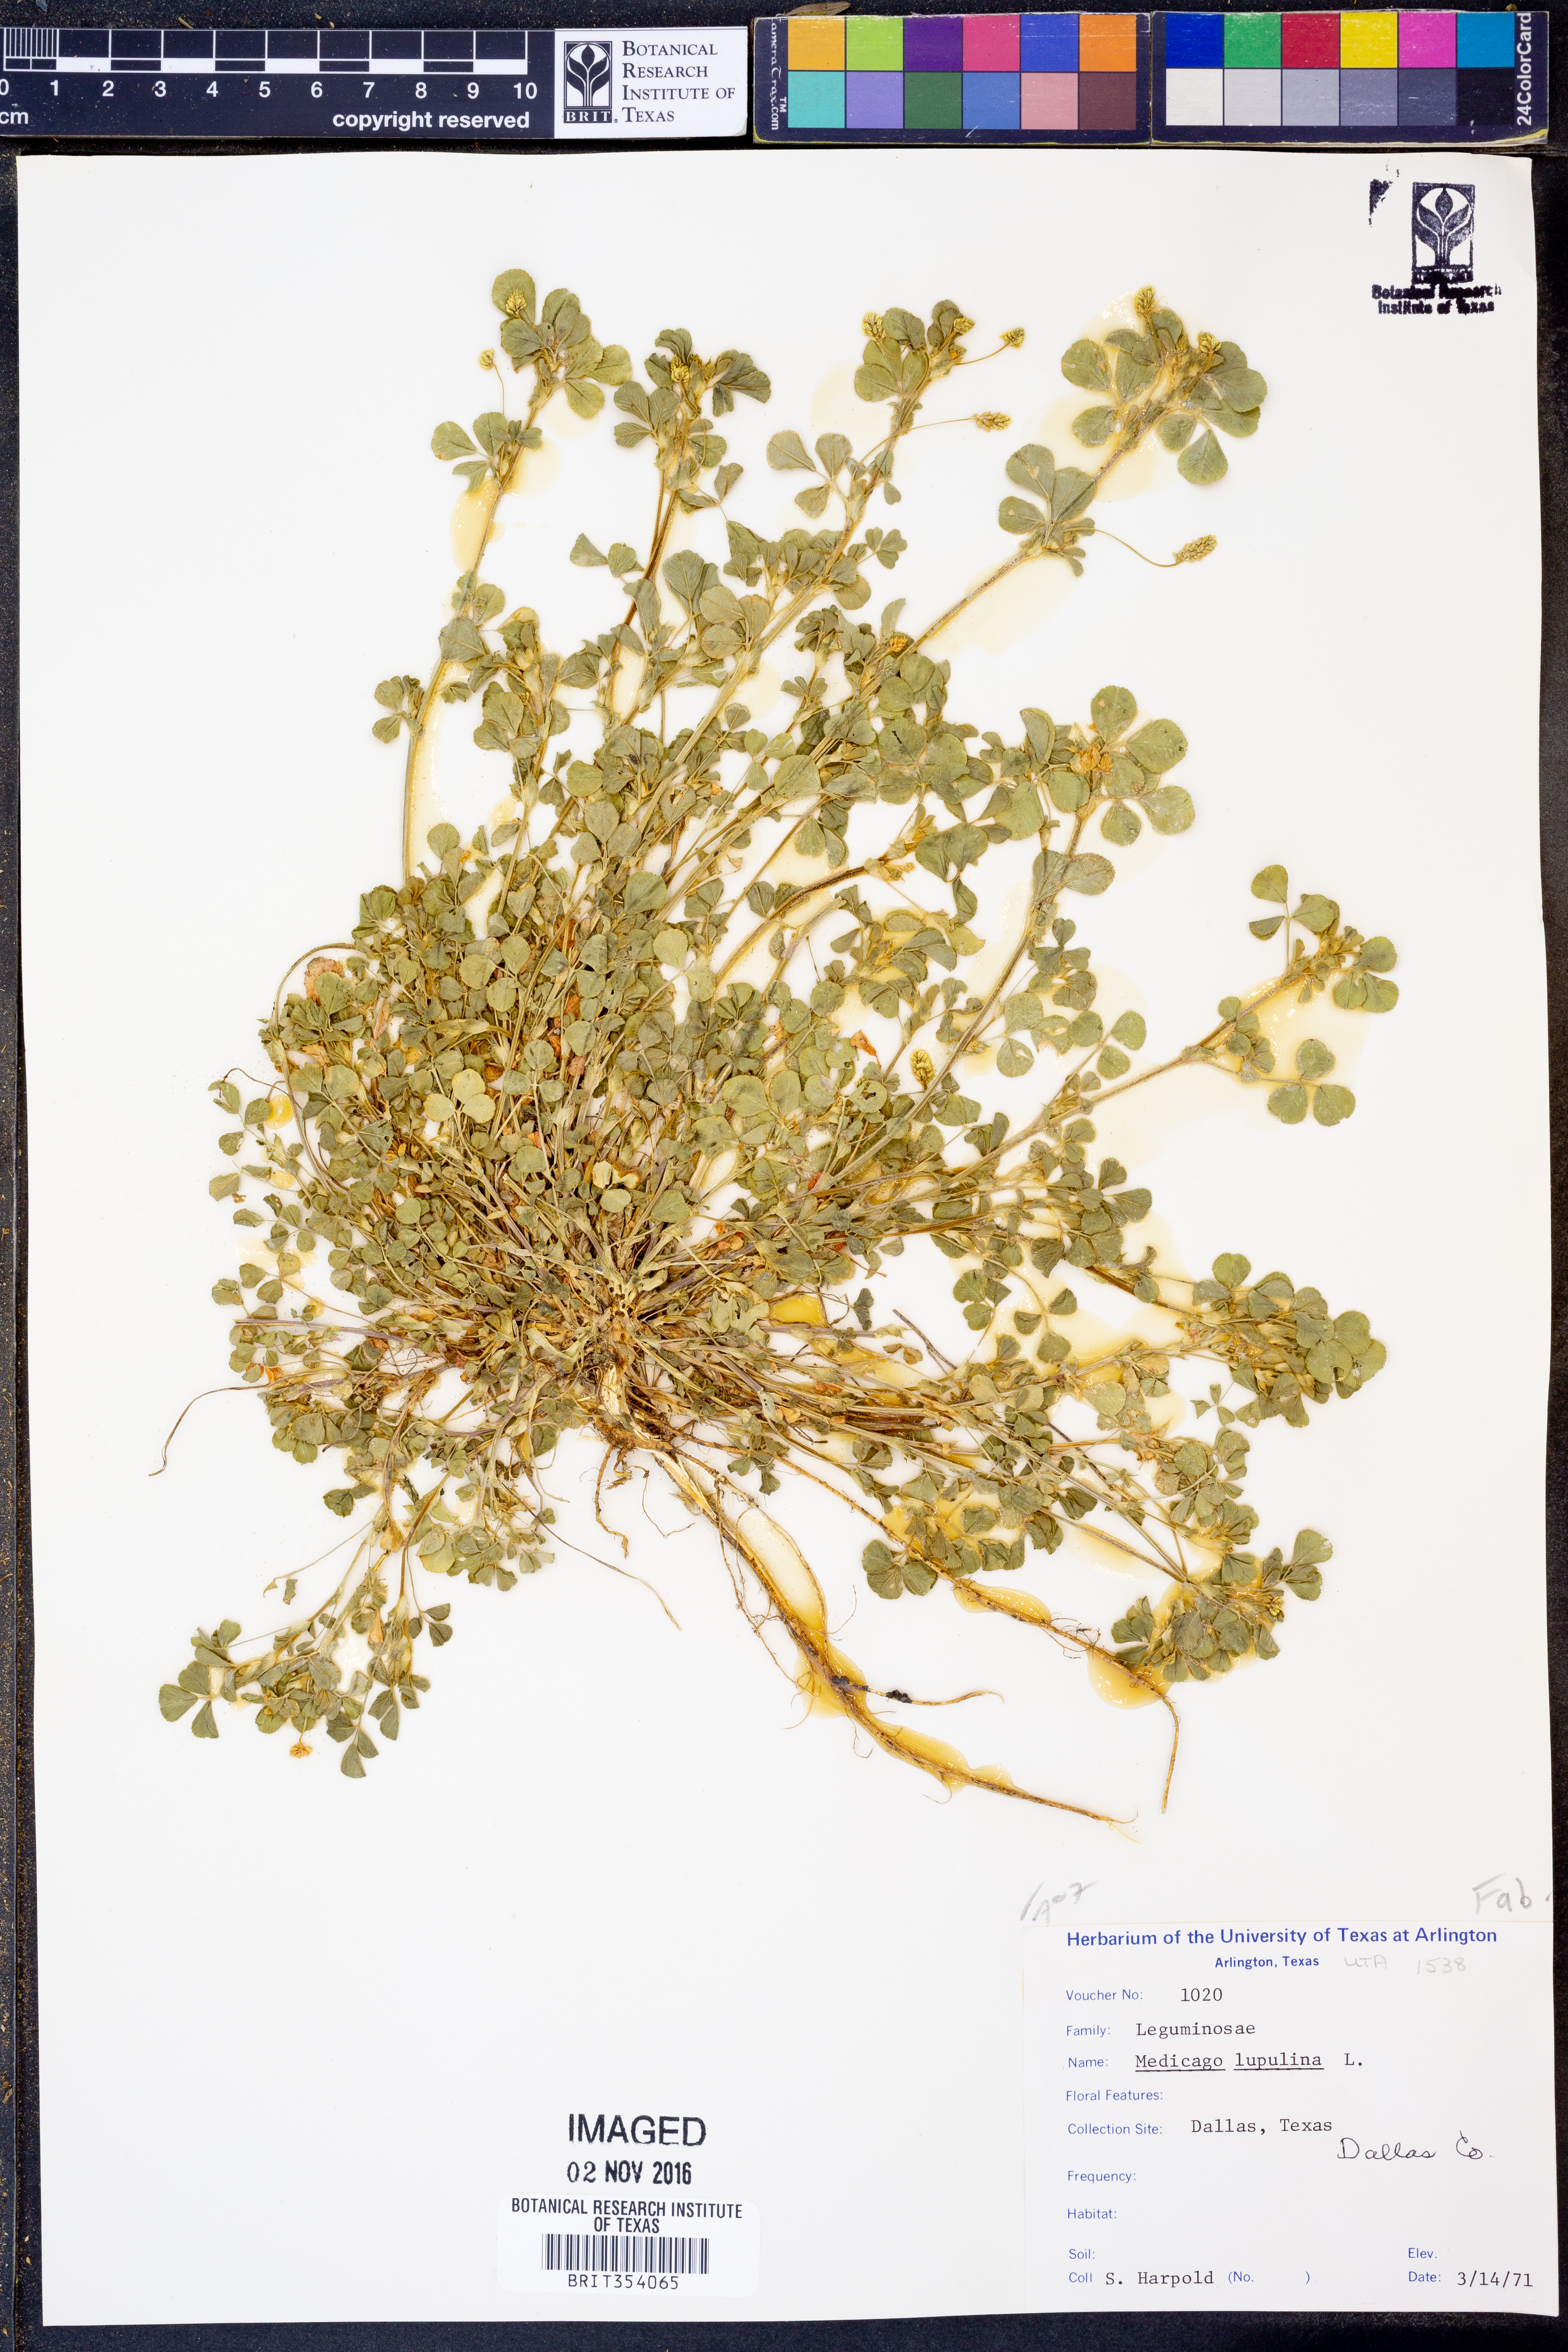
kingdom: Plantae
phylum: Tracheophyta
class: Magnoliopsida
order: Fabales
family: Fabaceae
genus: Medicago
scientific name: Medicago lupulina
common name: Black medick
